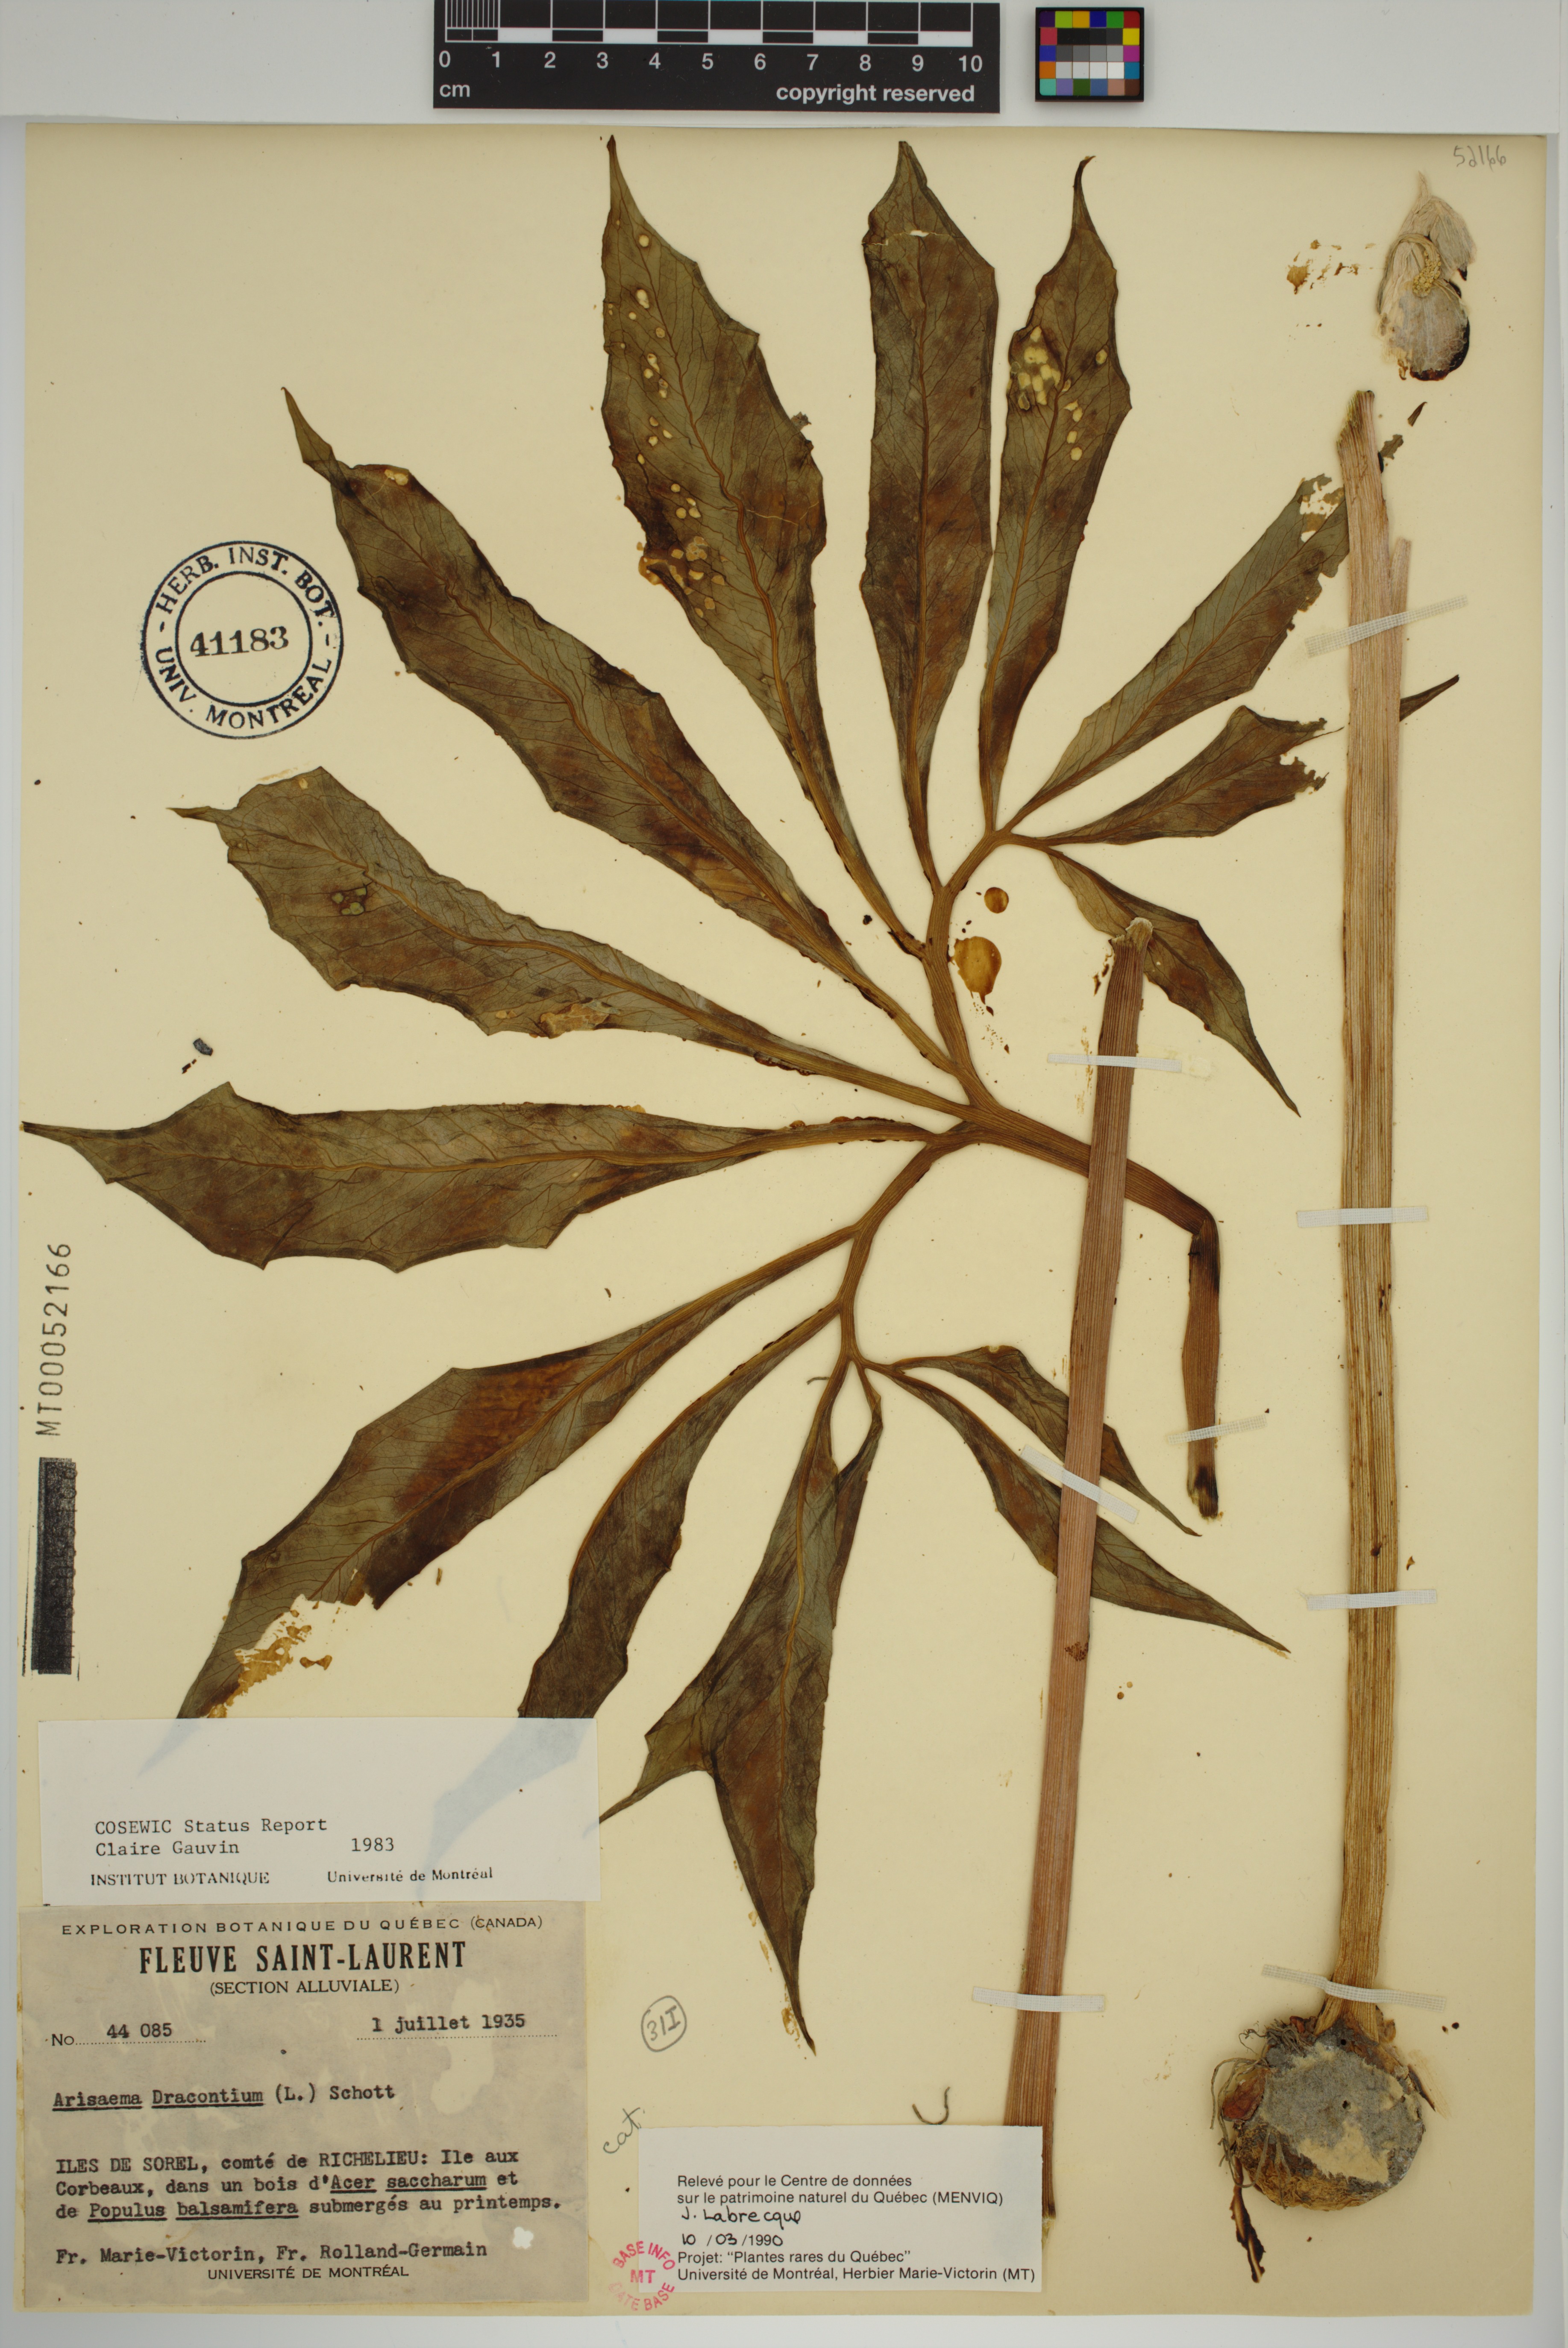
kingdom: Plantae
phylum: Tracheophyta
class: Liliopsida
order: Alismatales
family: Araceae
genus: Arisaema
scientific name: Arisaema dracontium
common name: Dragon-arum
